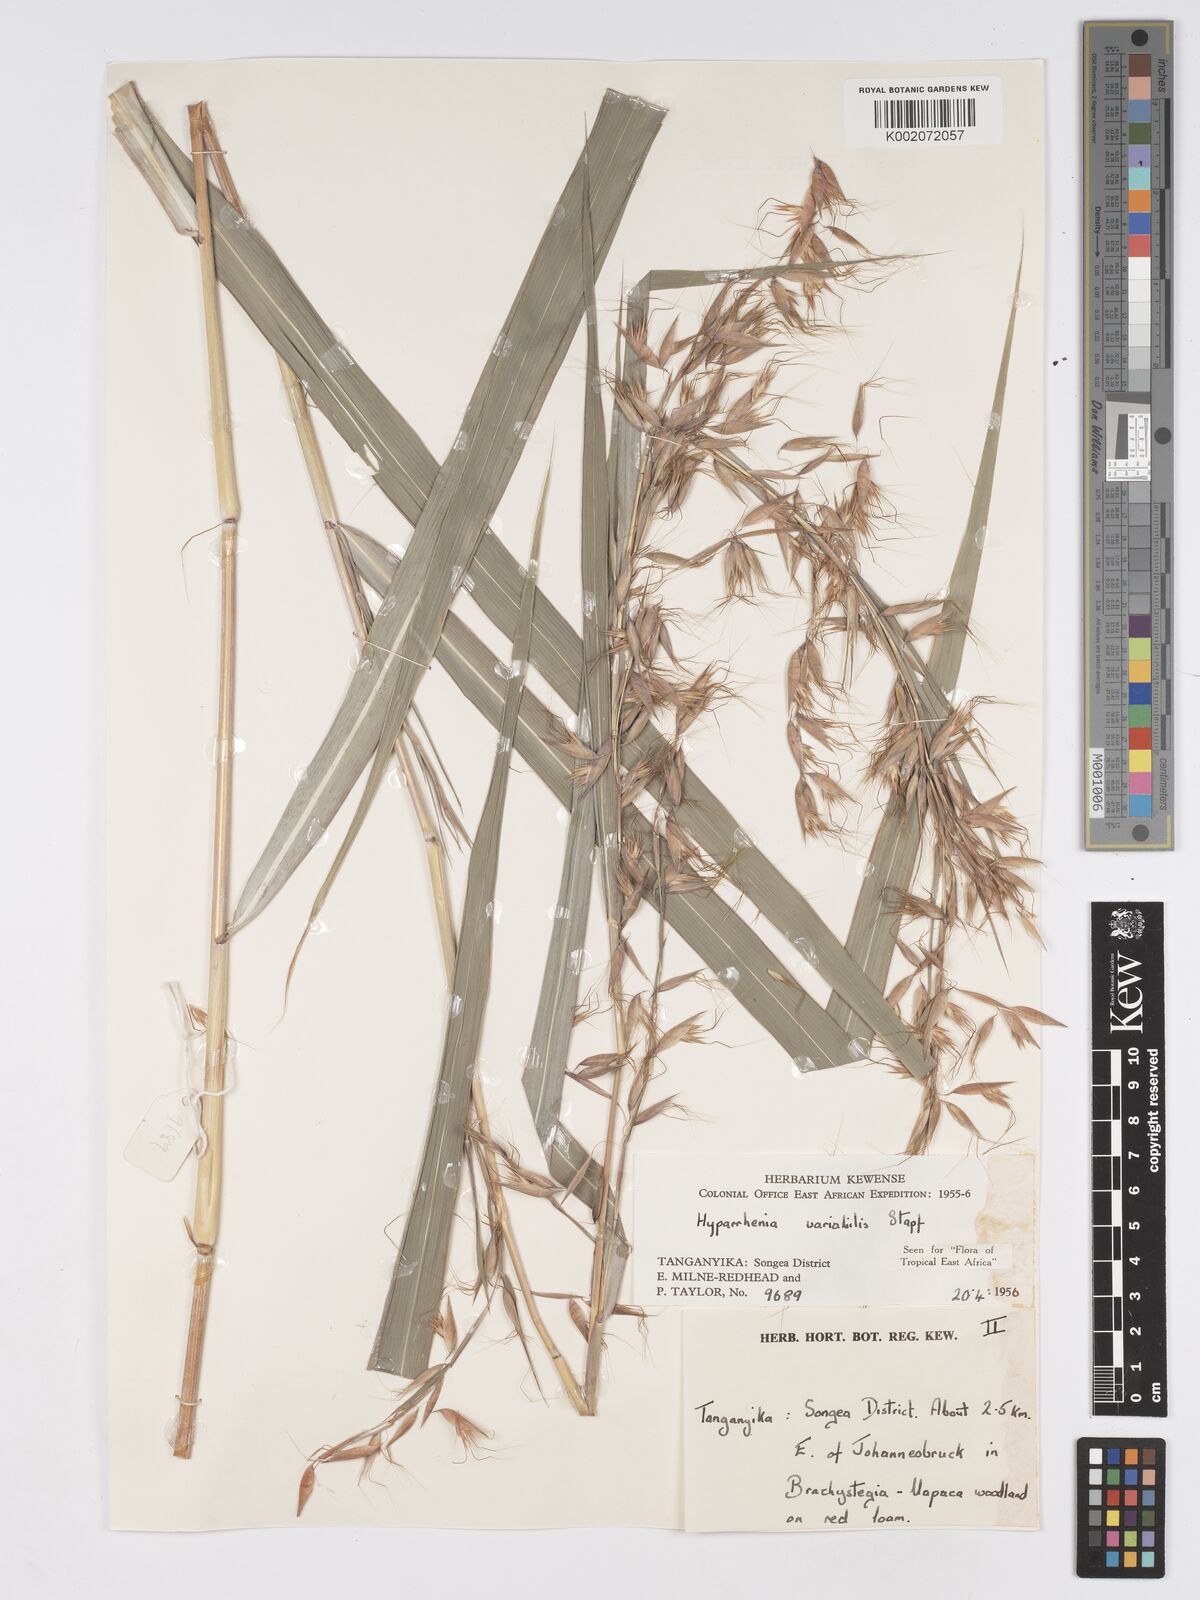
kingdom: Plantae
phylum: Tracheophyta
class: Liliopsida
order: Poales
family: Poaceae
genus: Hyparrhenia
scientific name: Hyparrhenia variabilis
